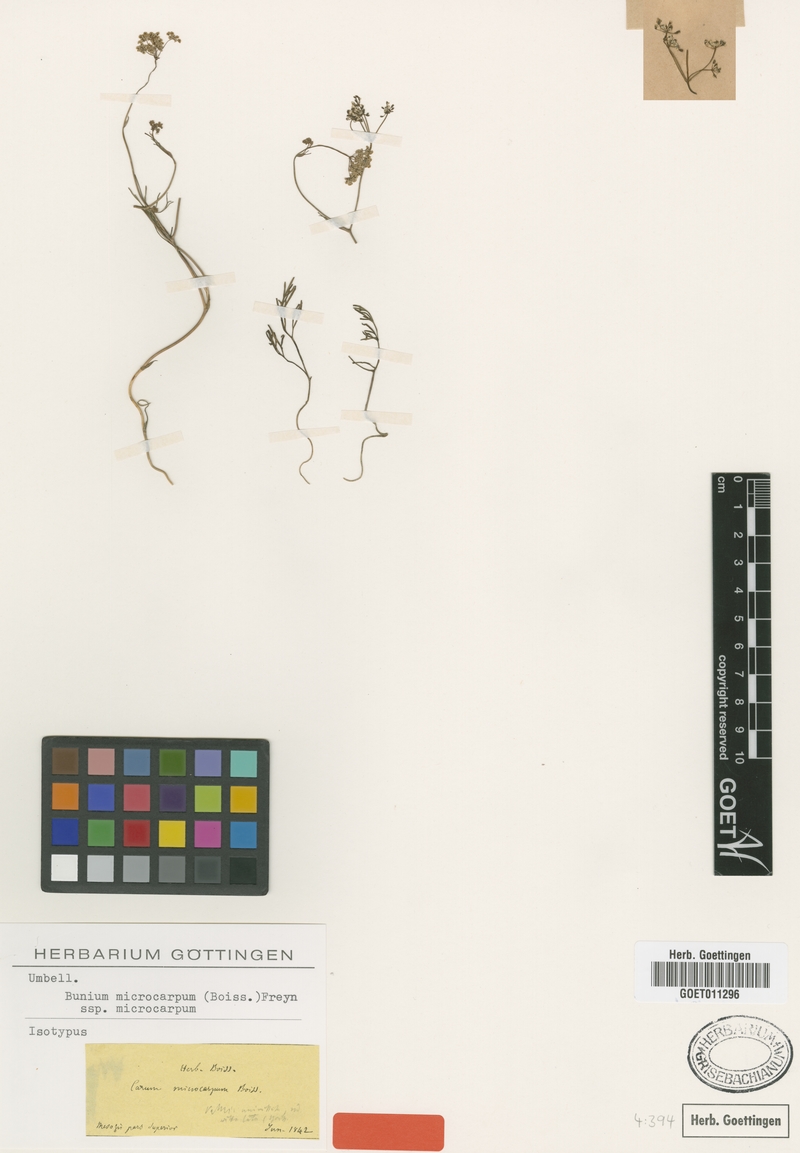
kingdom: Plantae
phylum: Tracheophyta
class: Magnoliopsida
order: Apiales
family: Apiaceae
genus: Bunium
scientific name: Bunium microcarpum
